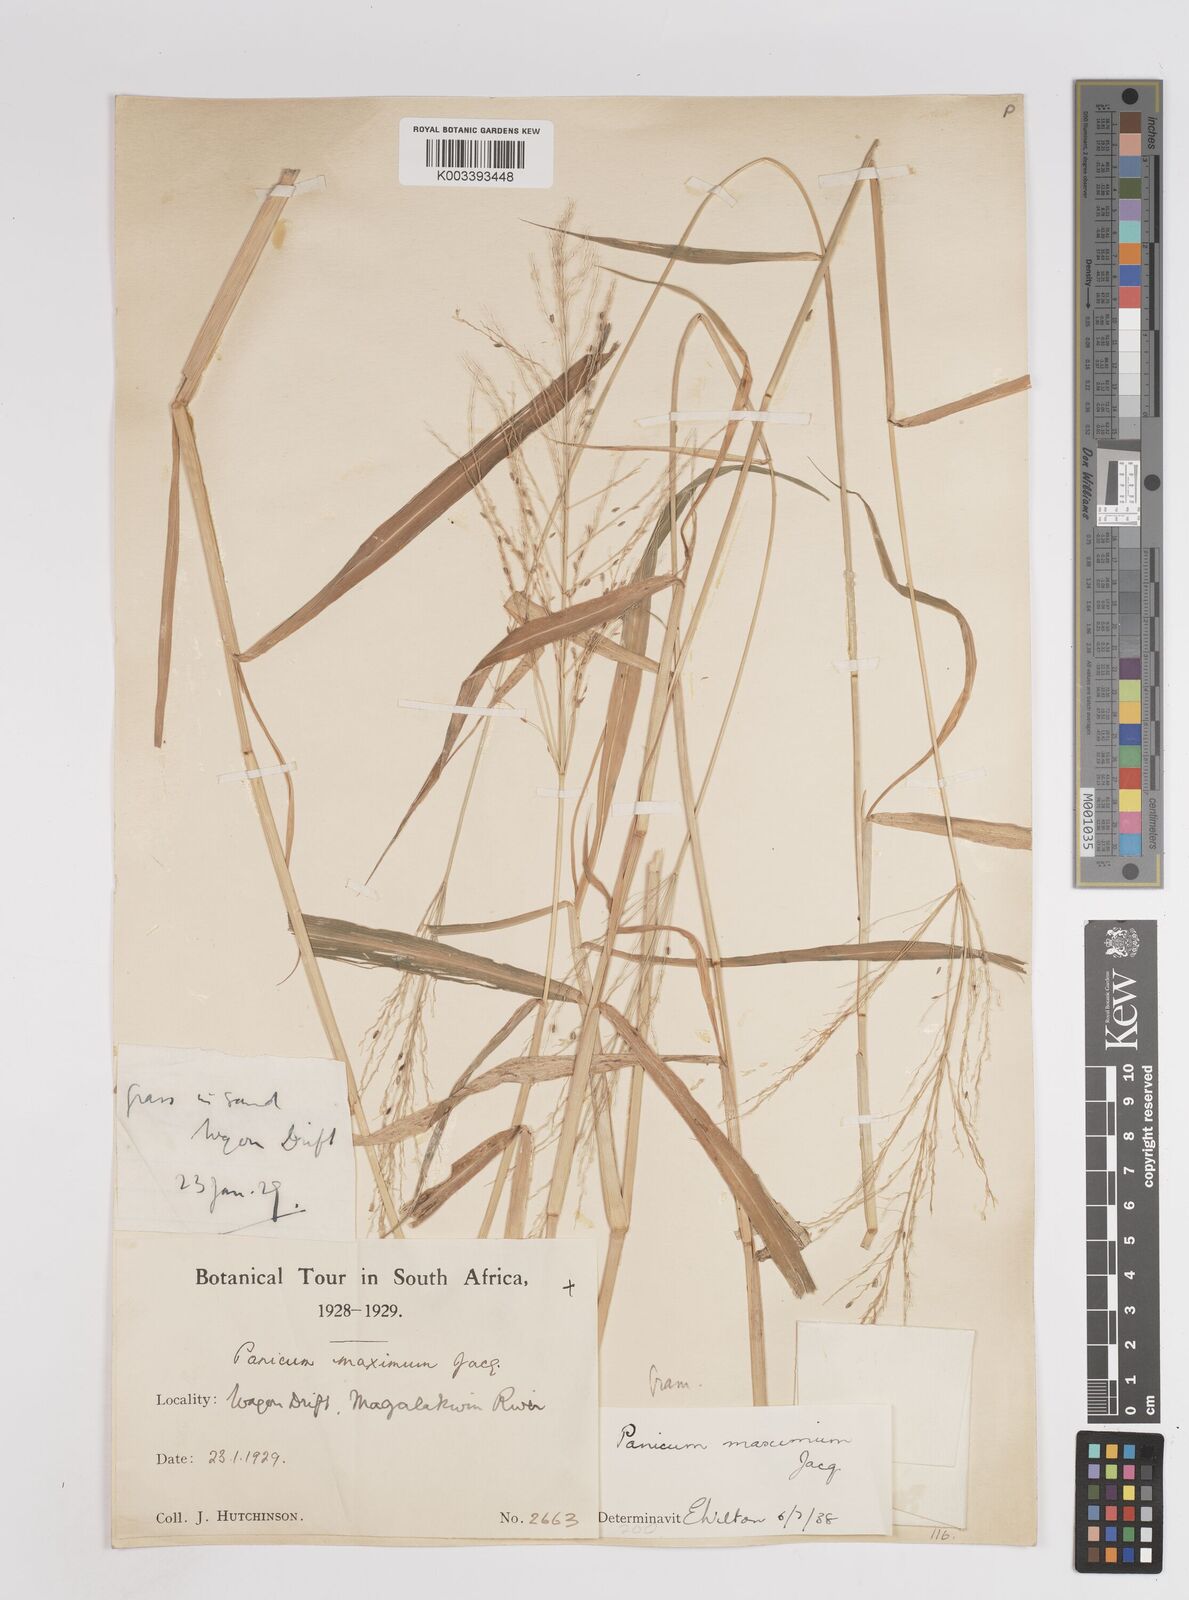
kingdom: Plantae
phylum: Tracheophyta
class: Liliopsida
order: Poales
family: Poaceae
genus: Megathyrsus
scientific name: Megathyrsus maximus
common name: Guineagrass
